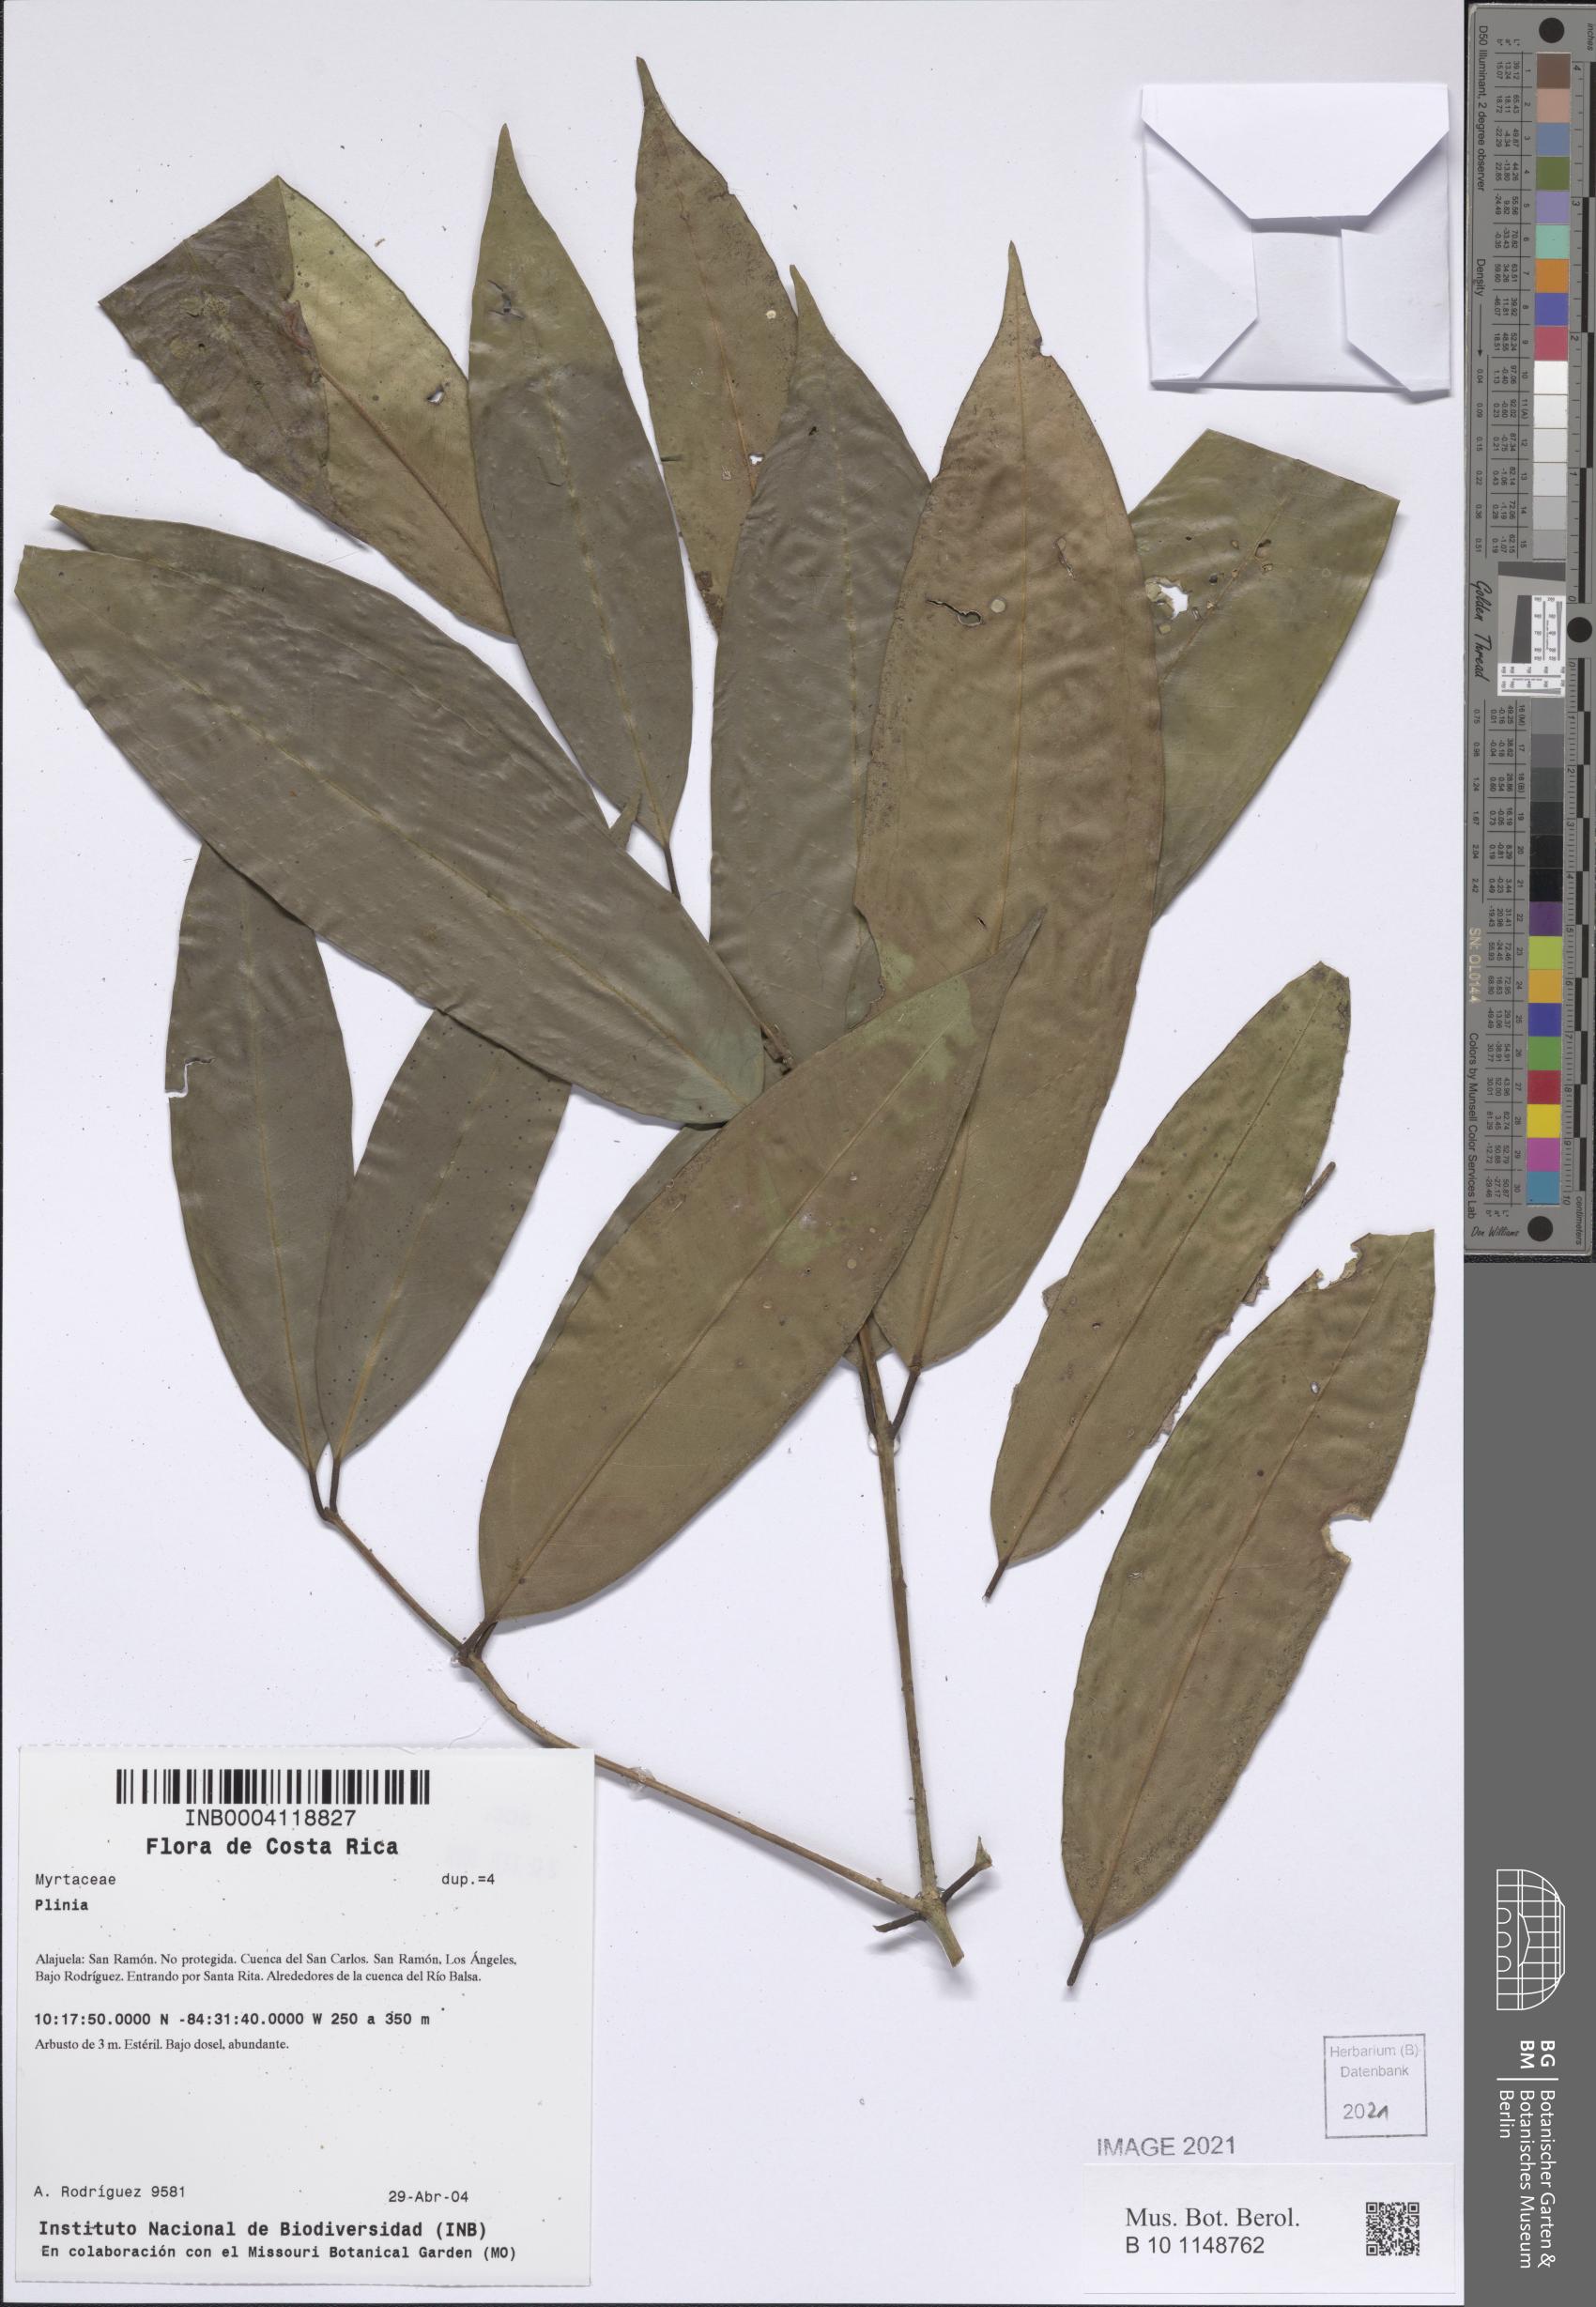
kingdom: Plantae
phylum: Tracheophyta
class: Magnoliopsida
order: Myrtales
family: Myrtaceae
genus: Plinia
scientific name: Plinia
